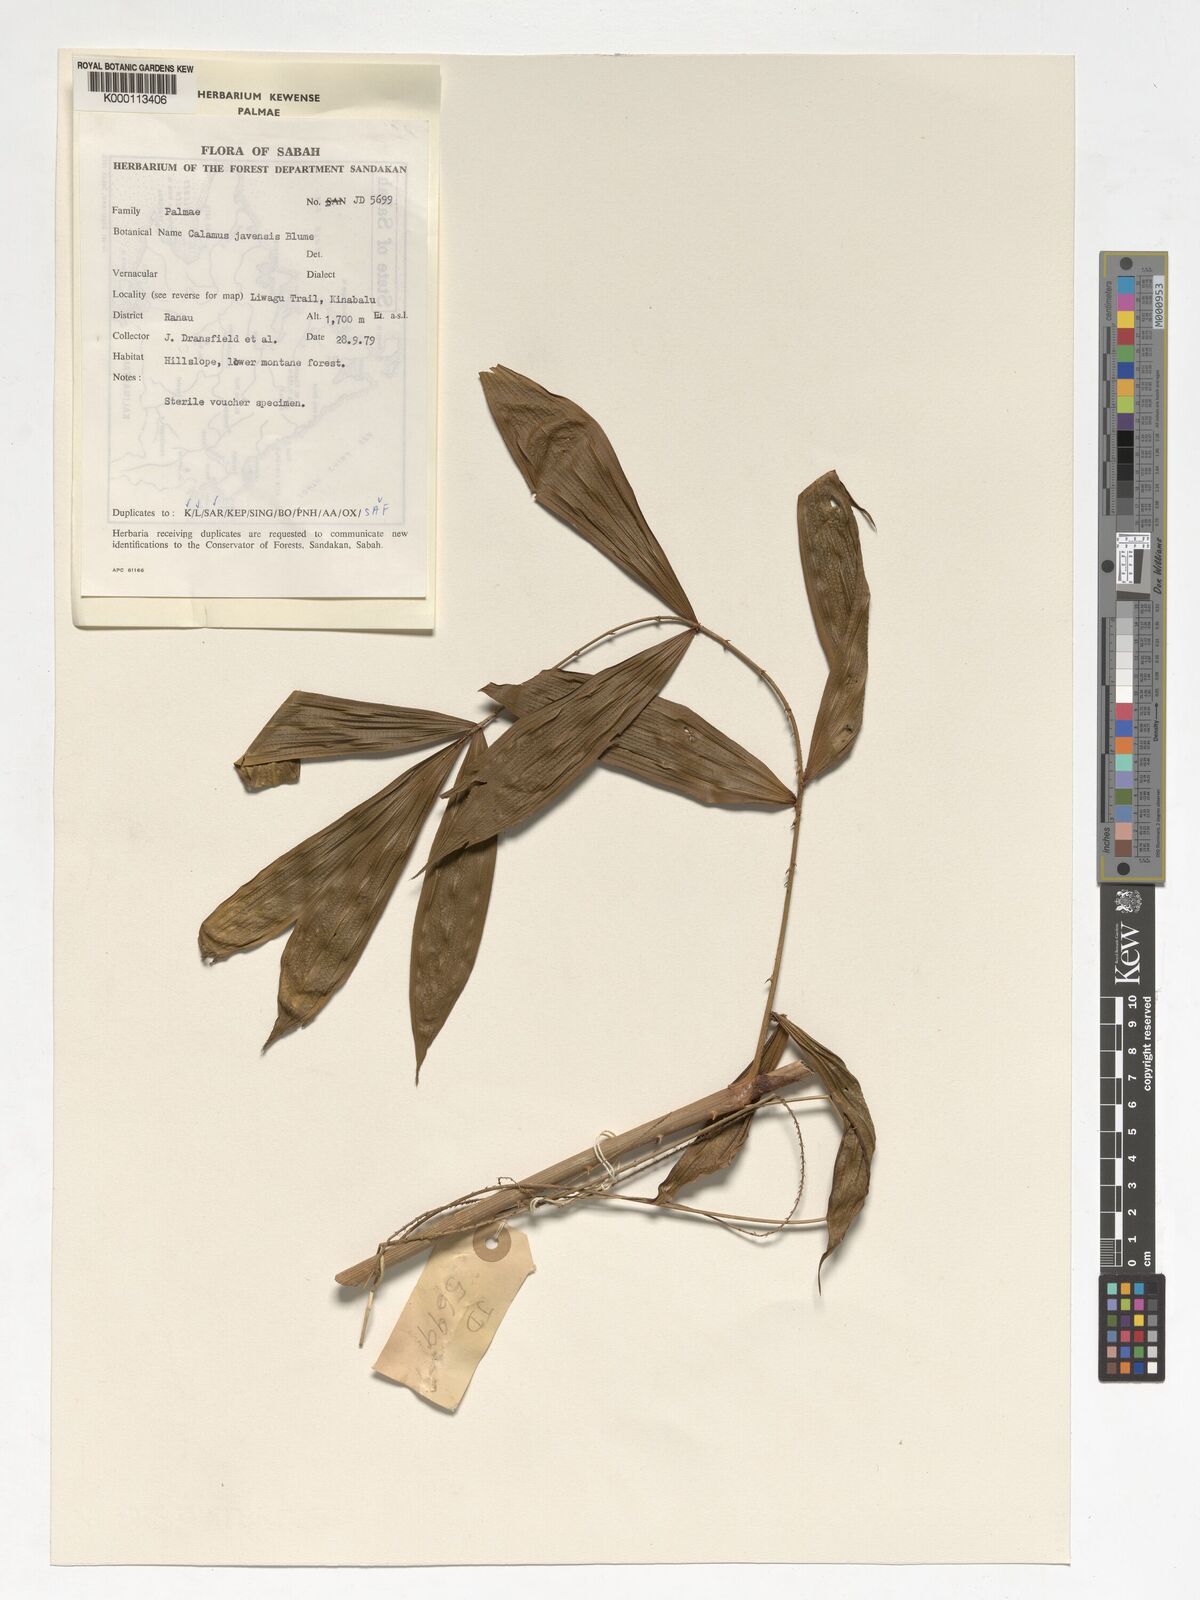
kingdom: Plantae
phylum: Tracheophyta
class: Liliopsida
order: Arecales
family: Arecaceae
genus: Calamus
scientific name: Calamus javensis
